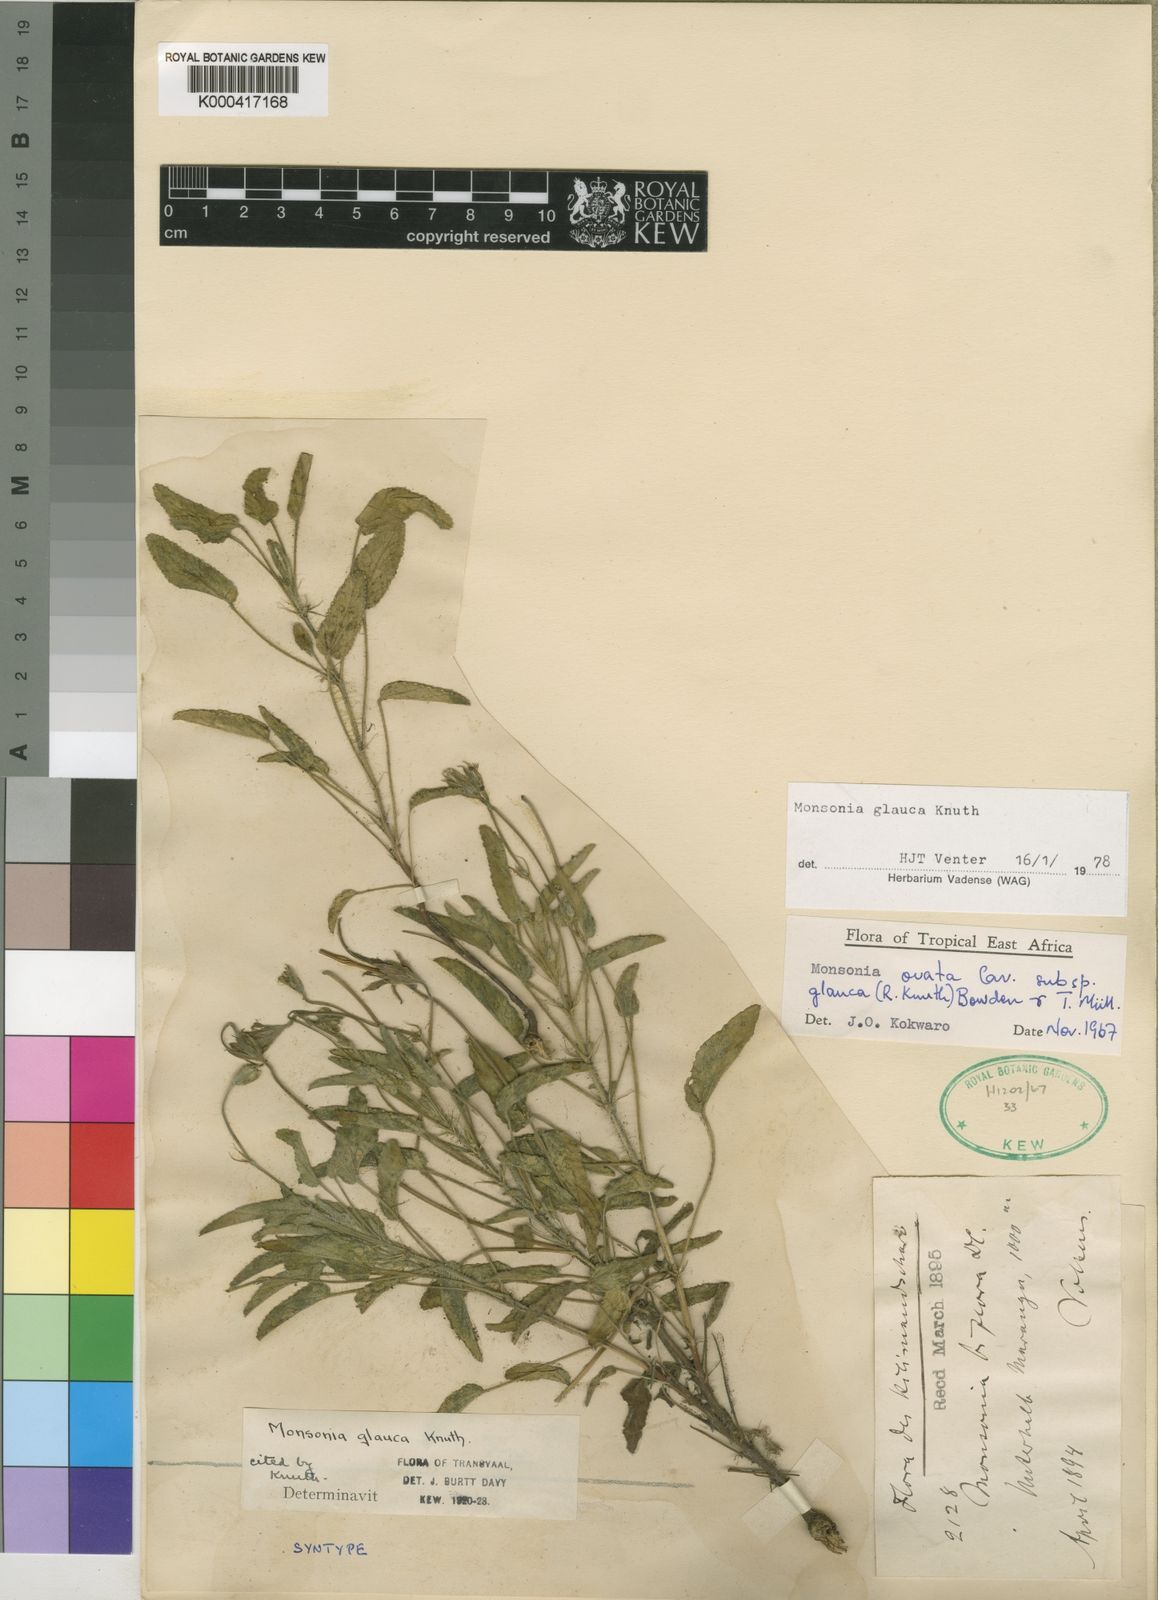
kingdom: Plantae
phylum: Tracheophyta
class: Magnoliopsida
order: Geraniales
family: Geraniaceae
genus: Monsonia
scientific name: Monsonia glauca
